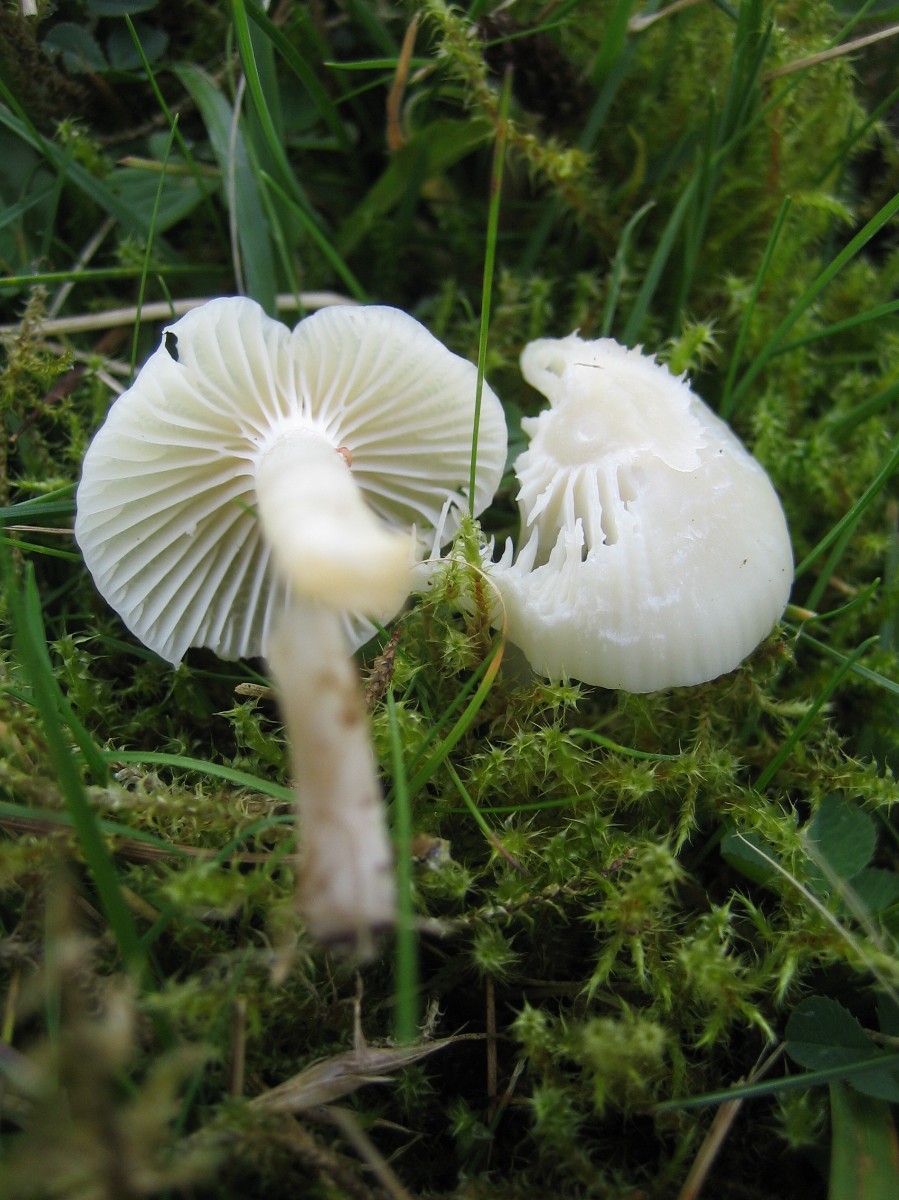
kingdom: Fungi
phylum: Basidiomycota
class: Agaricomycetes
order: Agaricales
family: Hygrophoraceae
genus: Cuphophyllus
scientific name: Cuphophyllus virgineus
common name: snehvid vokshat
